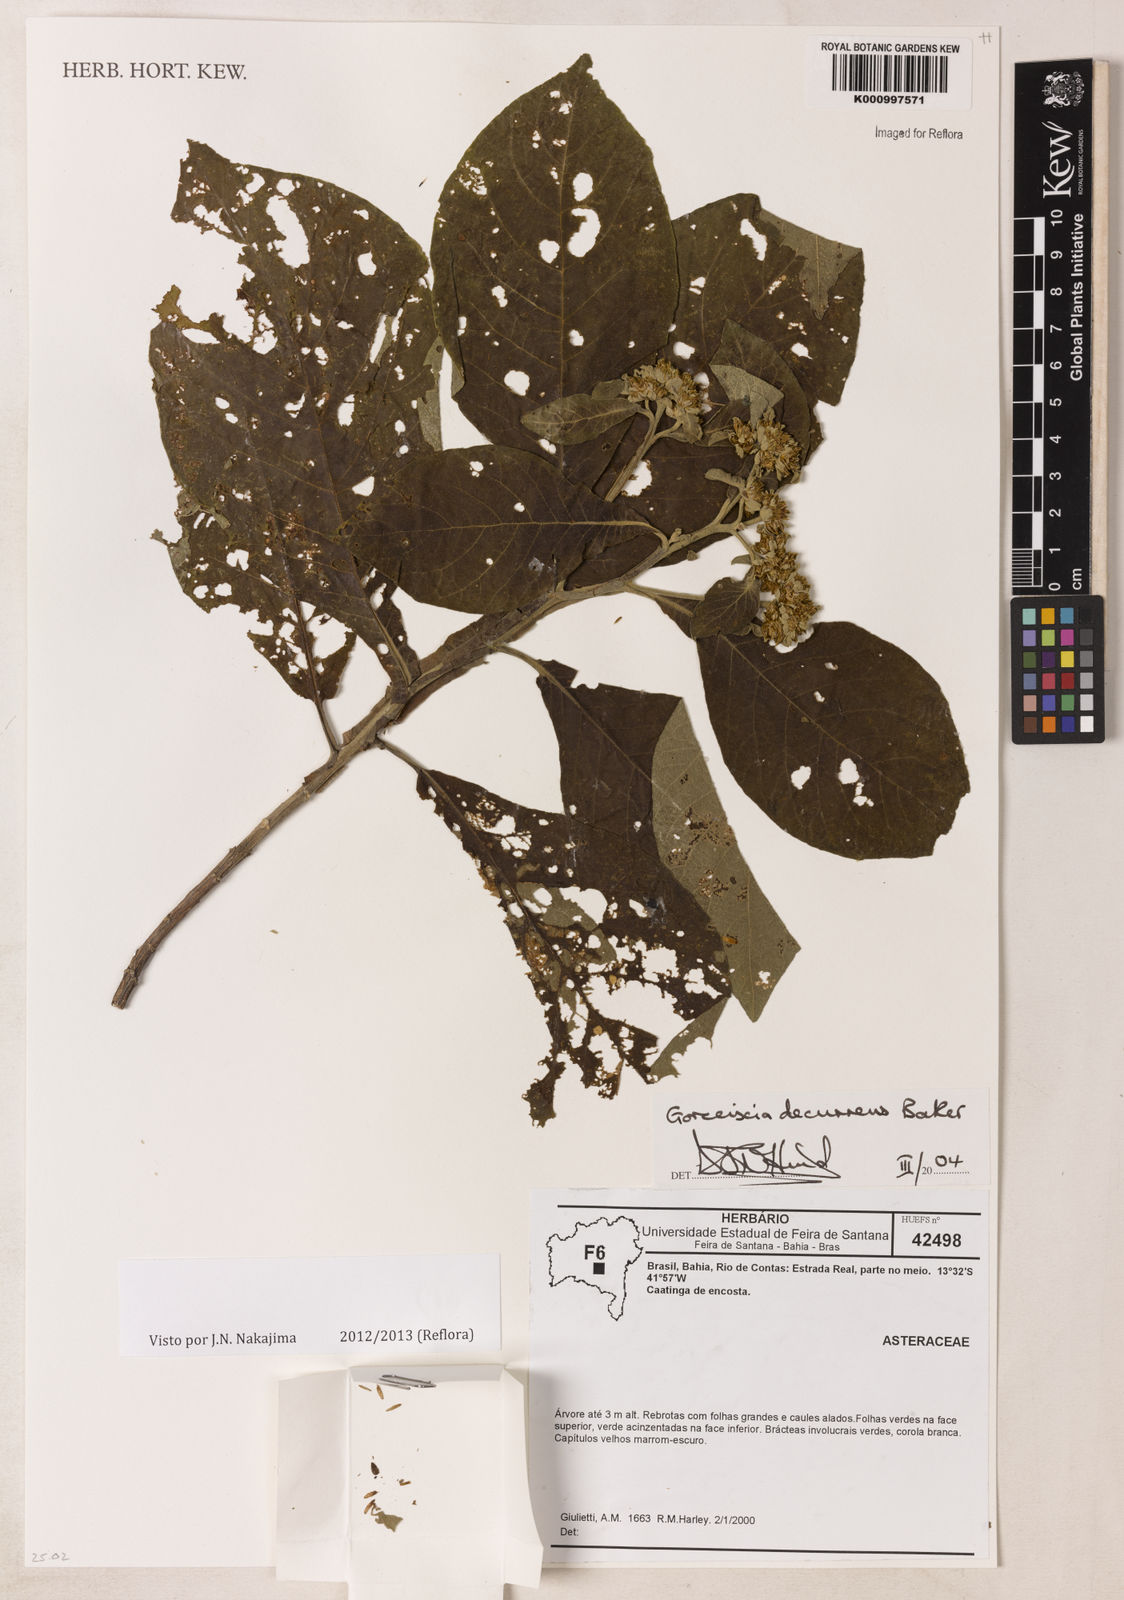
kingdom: Plantae
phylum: Tracheophyta
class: Magnoliopsida
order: Asterales
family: Asteraceae
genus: Gorceixia
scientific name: Gorceixia decurrens
